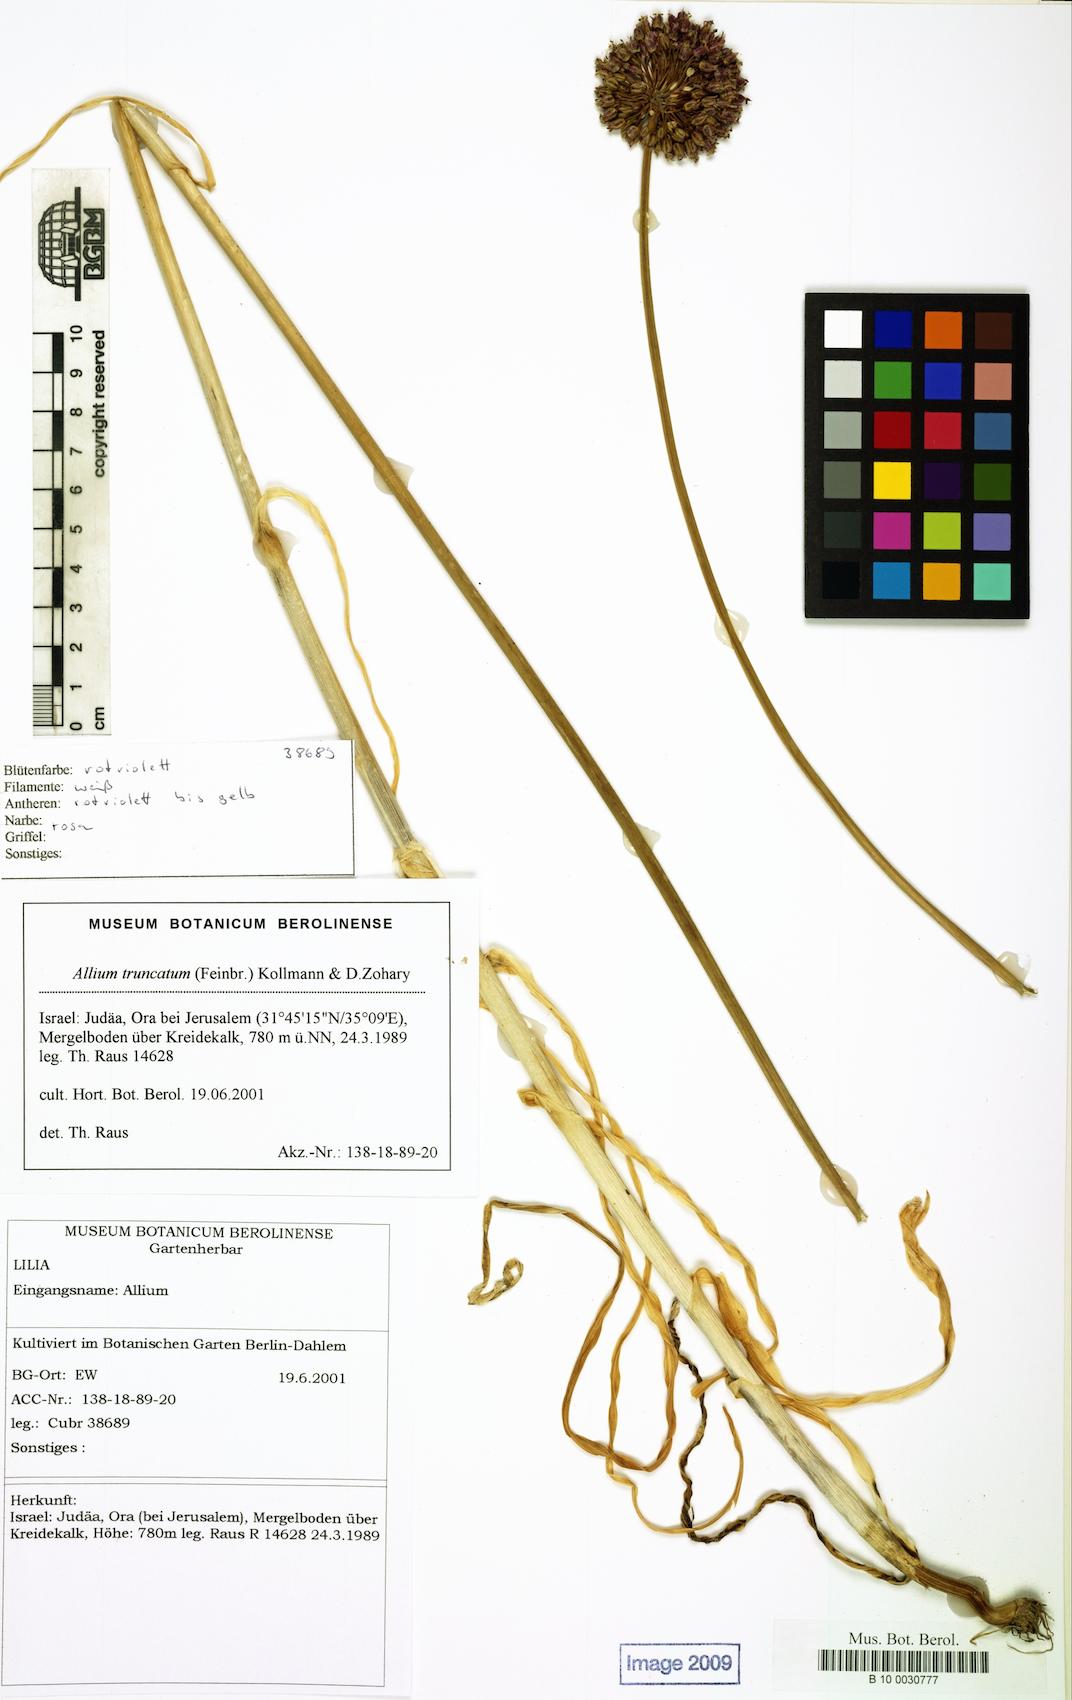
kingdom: Plantae
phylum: Tracheophyta
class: Liliopsida
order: Asparagales
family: Amaryllidaceae
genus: Allium
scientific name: Allium truncatum
